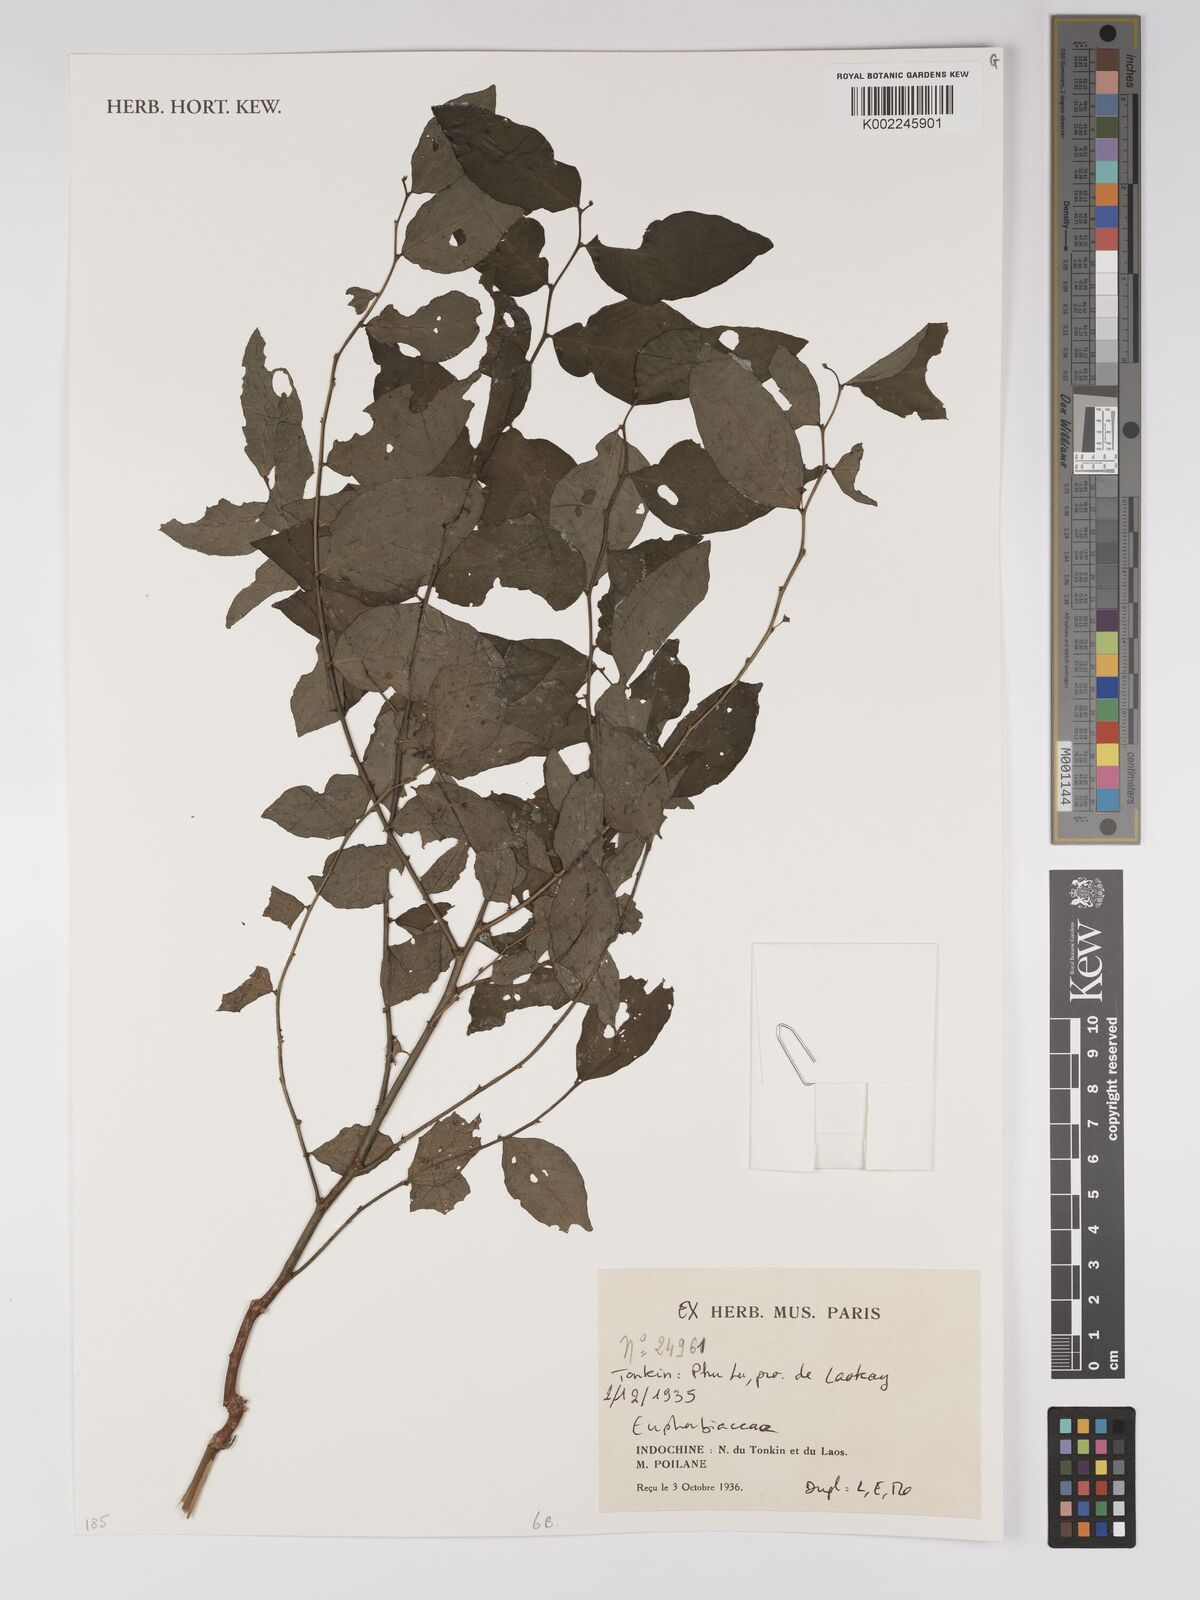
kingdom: Plantae
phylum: Tracheophyta
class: Magnoliopsida
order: Malpighiales
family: Euphorbiaceae
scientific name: Euphorbiaceae
